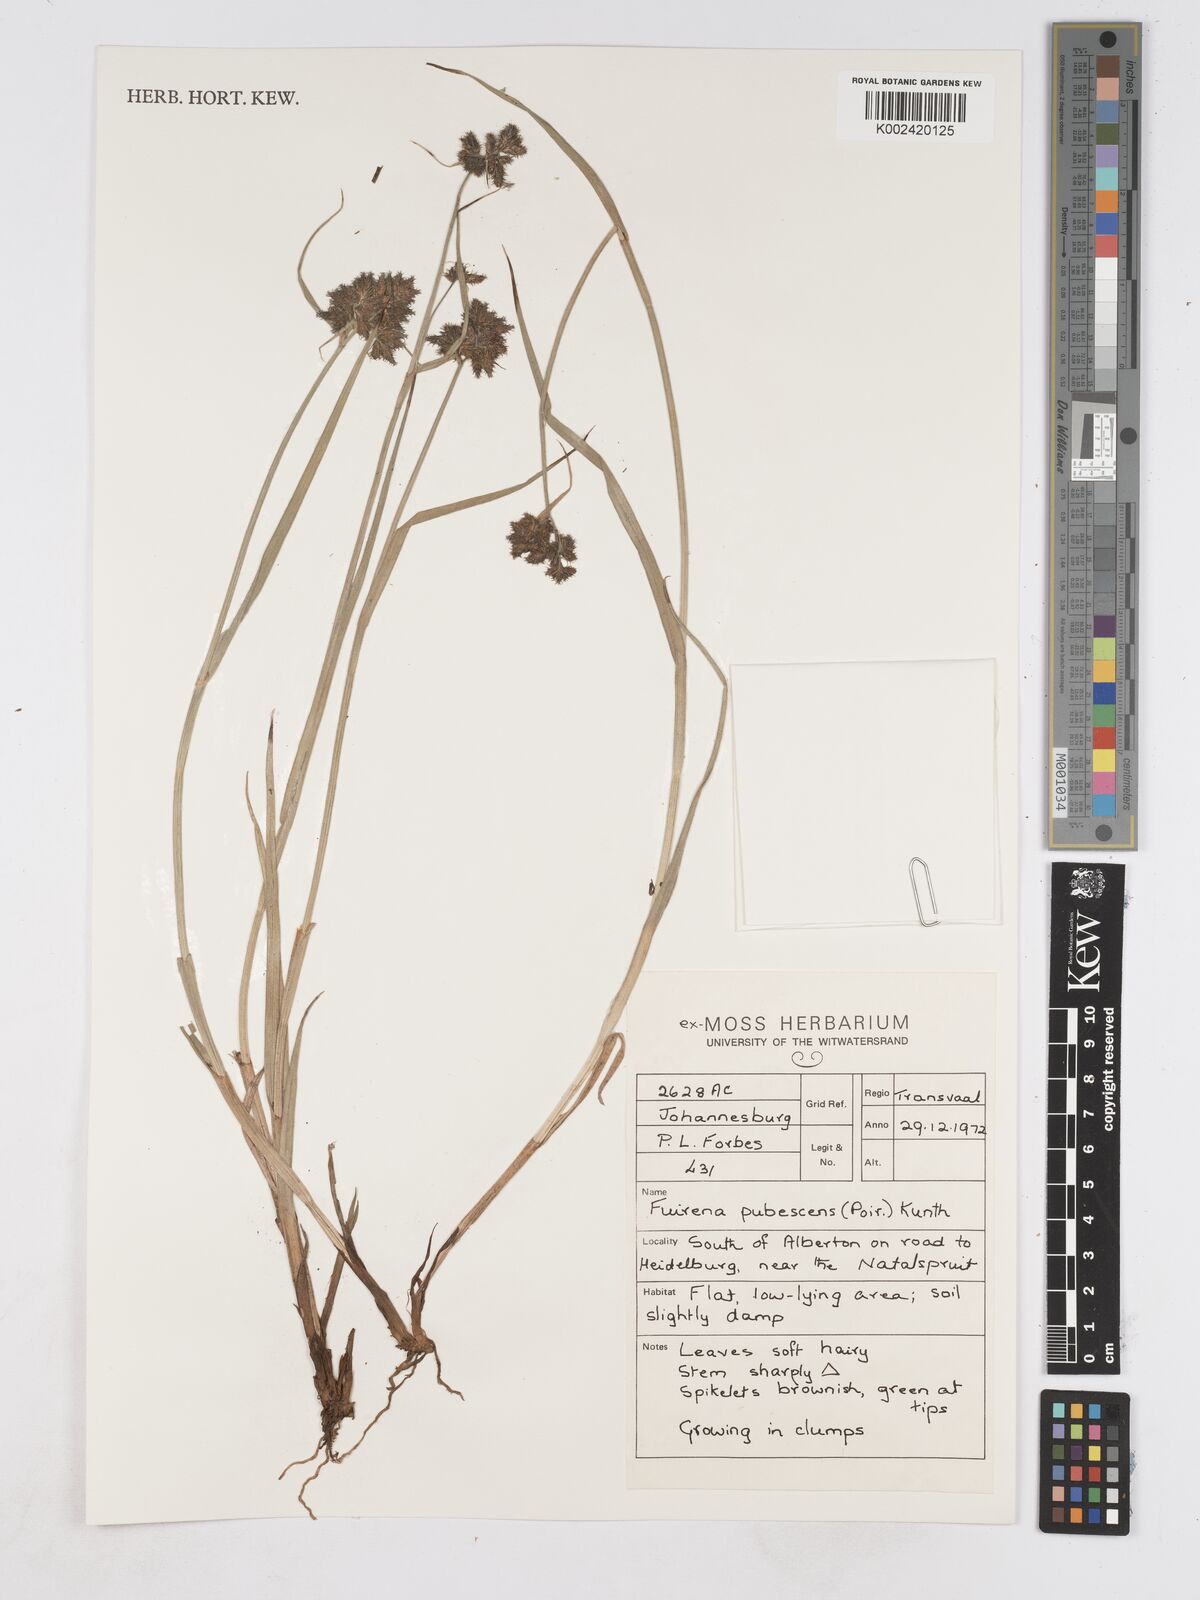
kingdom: Plantae
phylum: Tracheophyta
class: Liliopsida
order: Poales
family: Cyperaceae
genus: Fuirena
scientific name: Fuirena pubescens
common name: Hairy sedge
